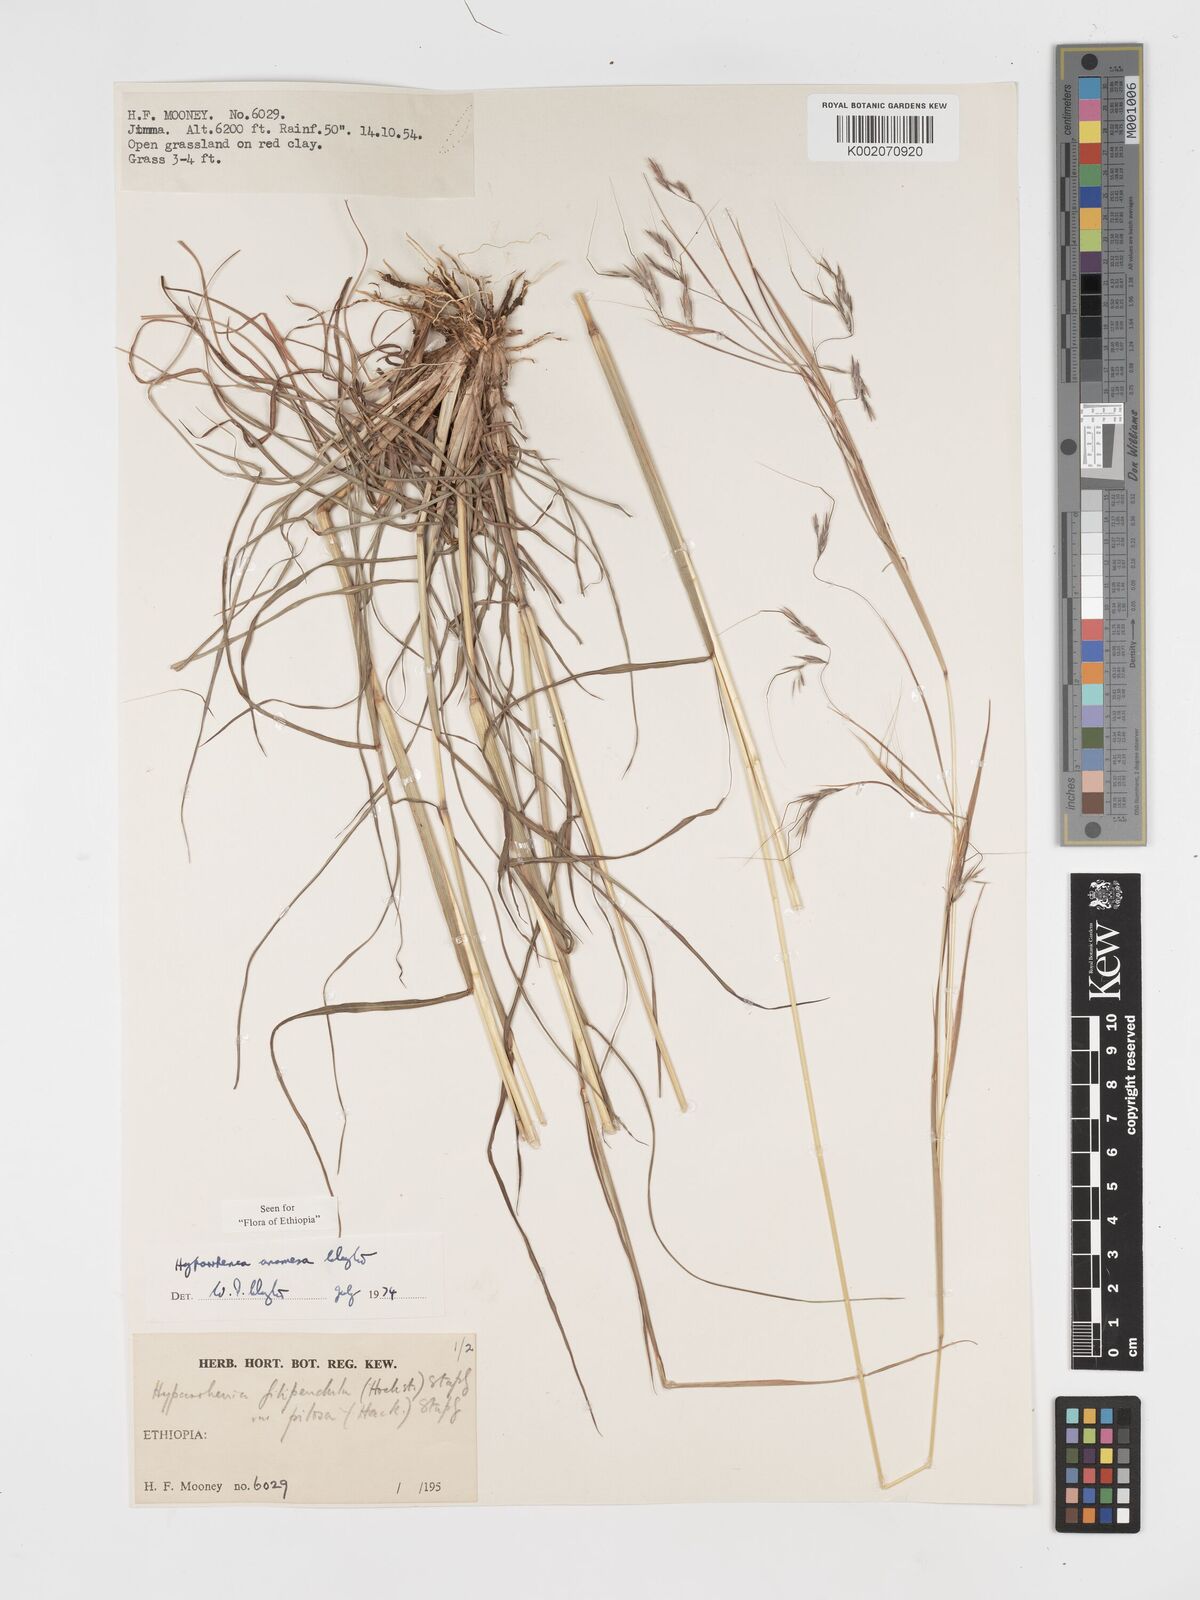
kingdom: Plantae
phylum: Tracheophyta
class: Liliopsida
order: Poales
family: Poaceae
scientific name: Poaceae
